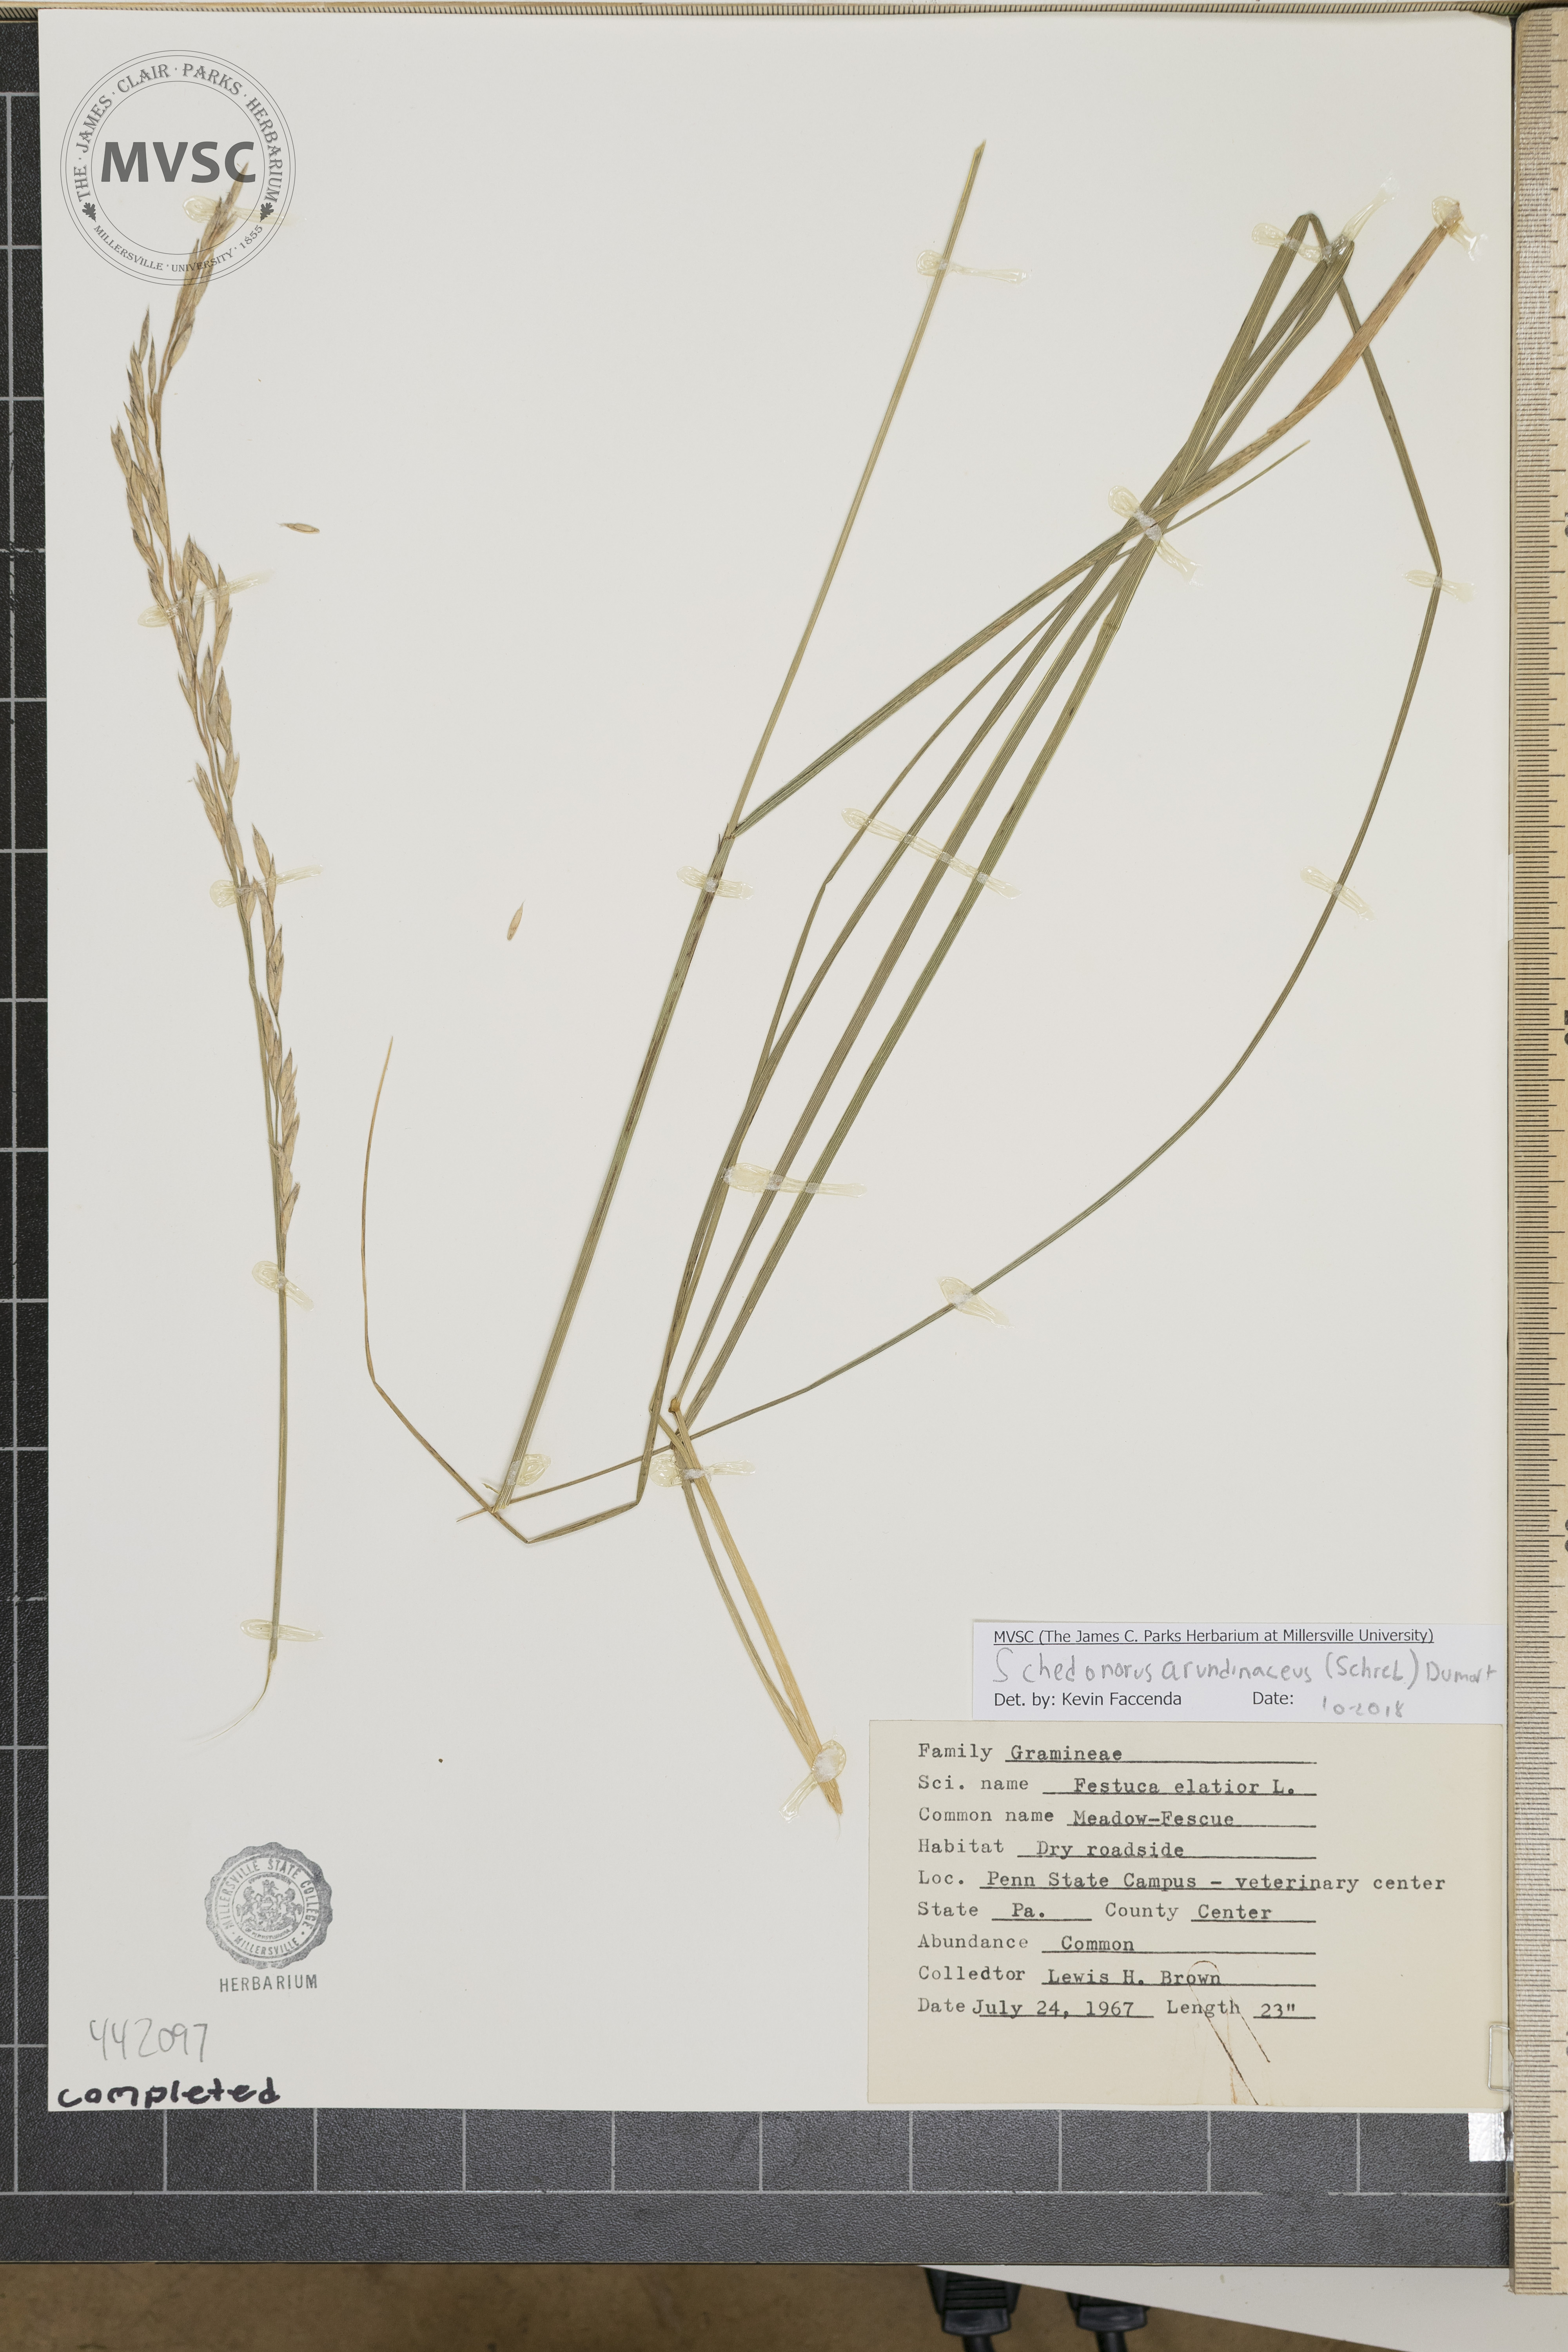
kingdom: Plantae
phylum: Tracheophyta
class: Liliopsida
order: Poales
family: Poaceae
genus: Lolium
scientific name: Lolium arundinaceum
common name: Meadow fescue
